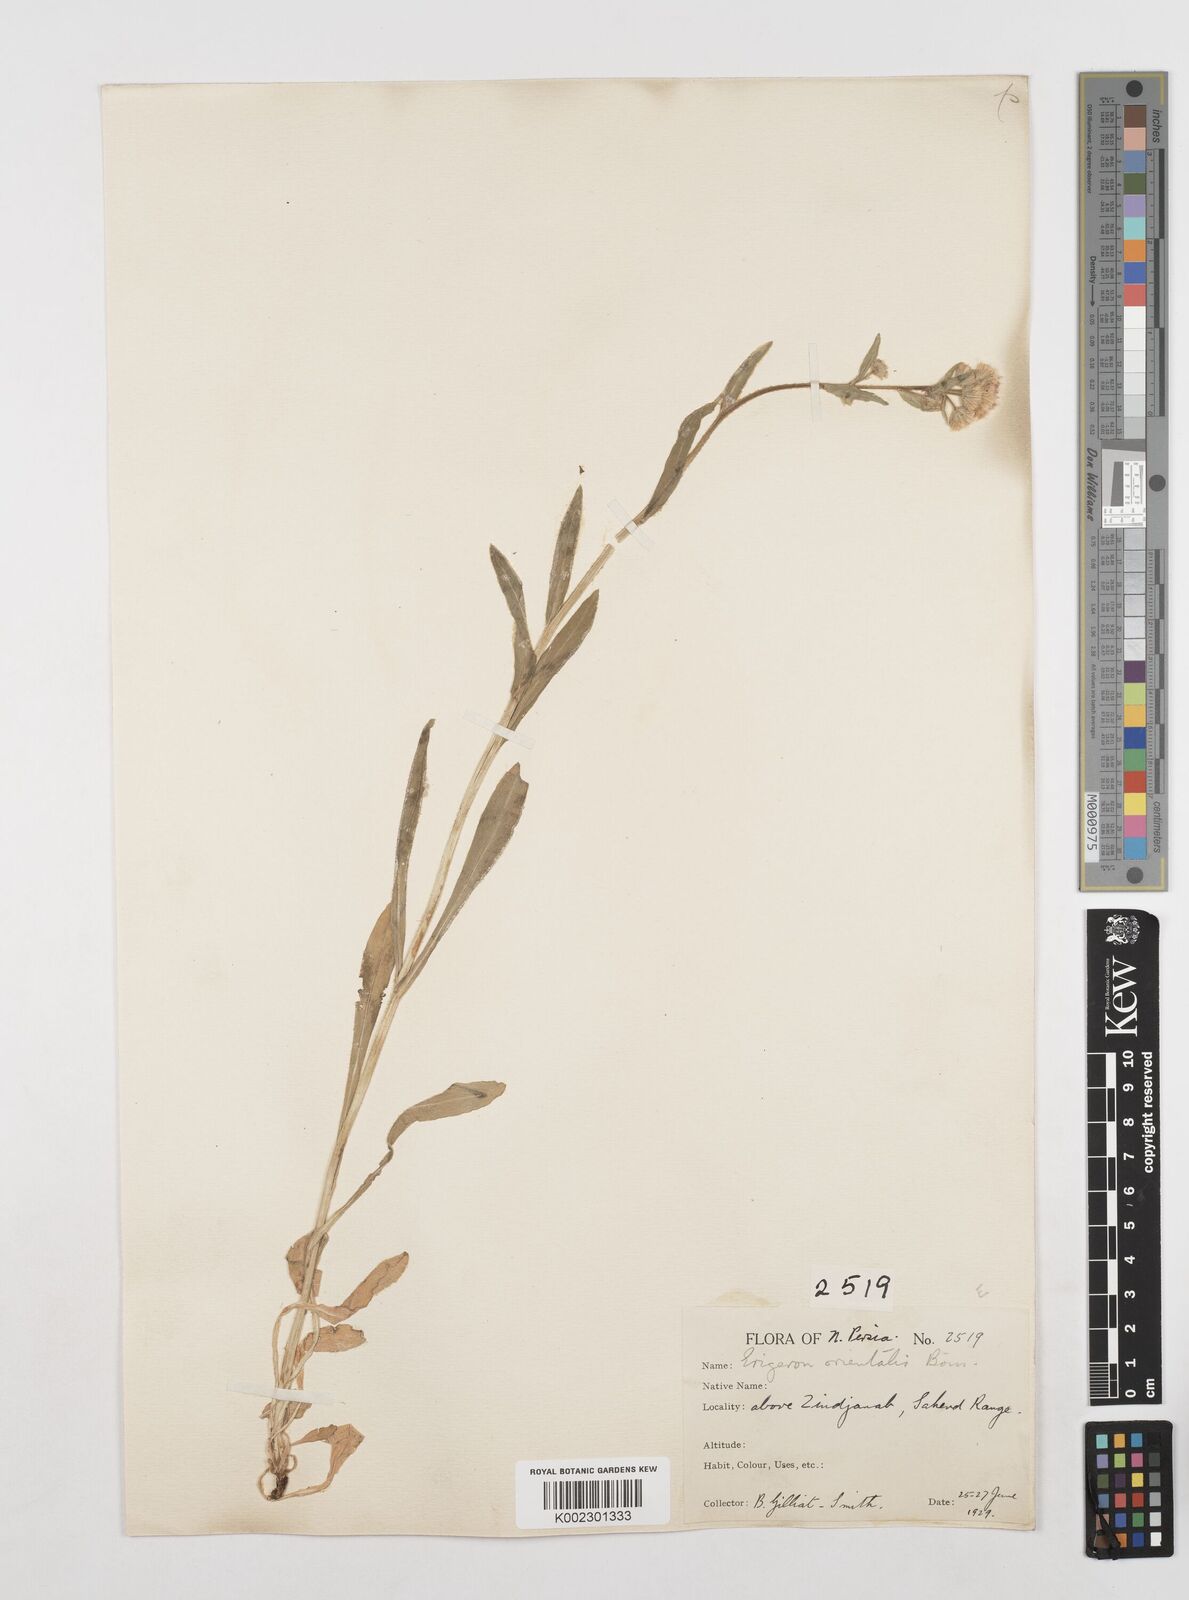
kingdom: Plantae
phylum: Tracheophyta
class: Magnoliopsida
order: Asterales
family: Asteraceae
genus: Erigeron
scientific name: Erigeron acris
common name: Blue fleabane
